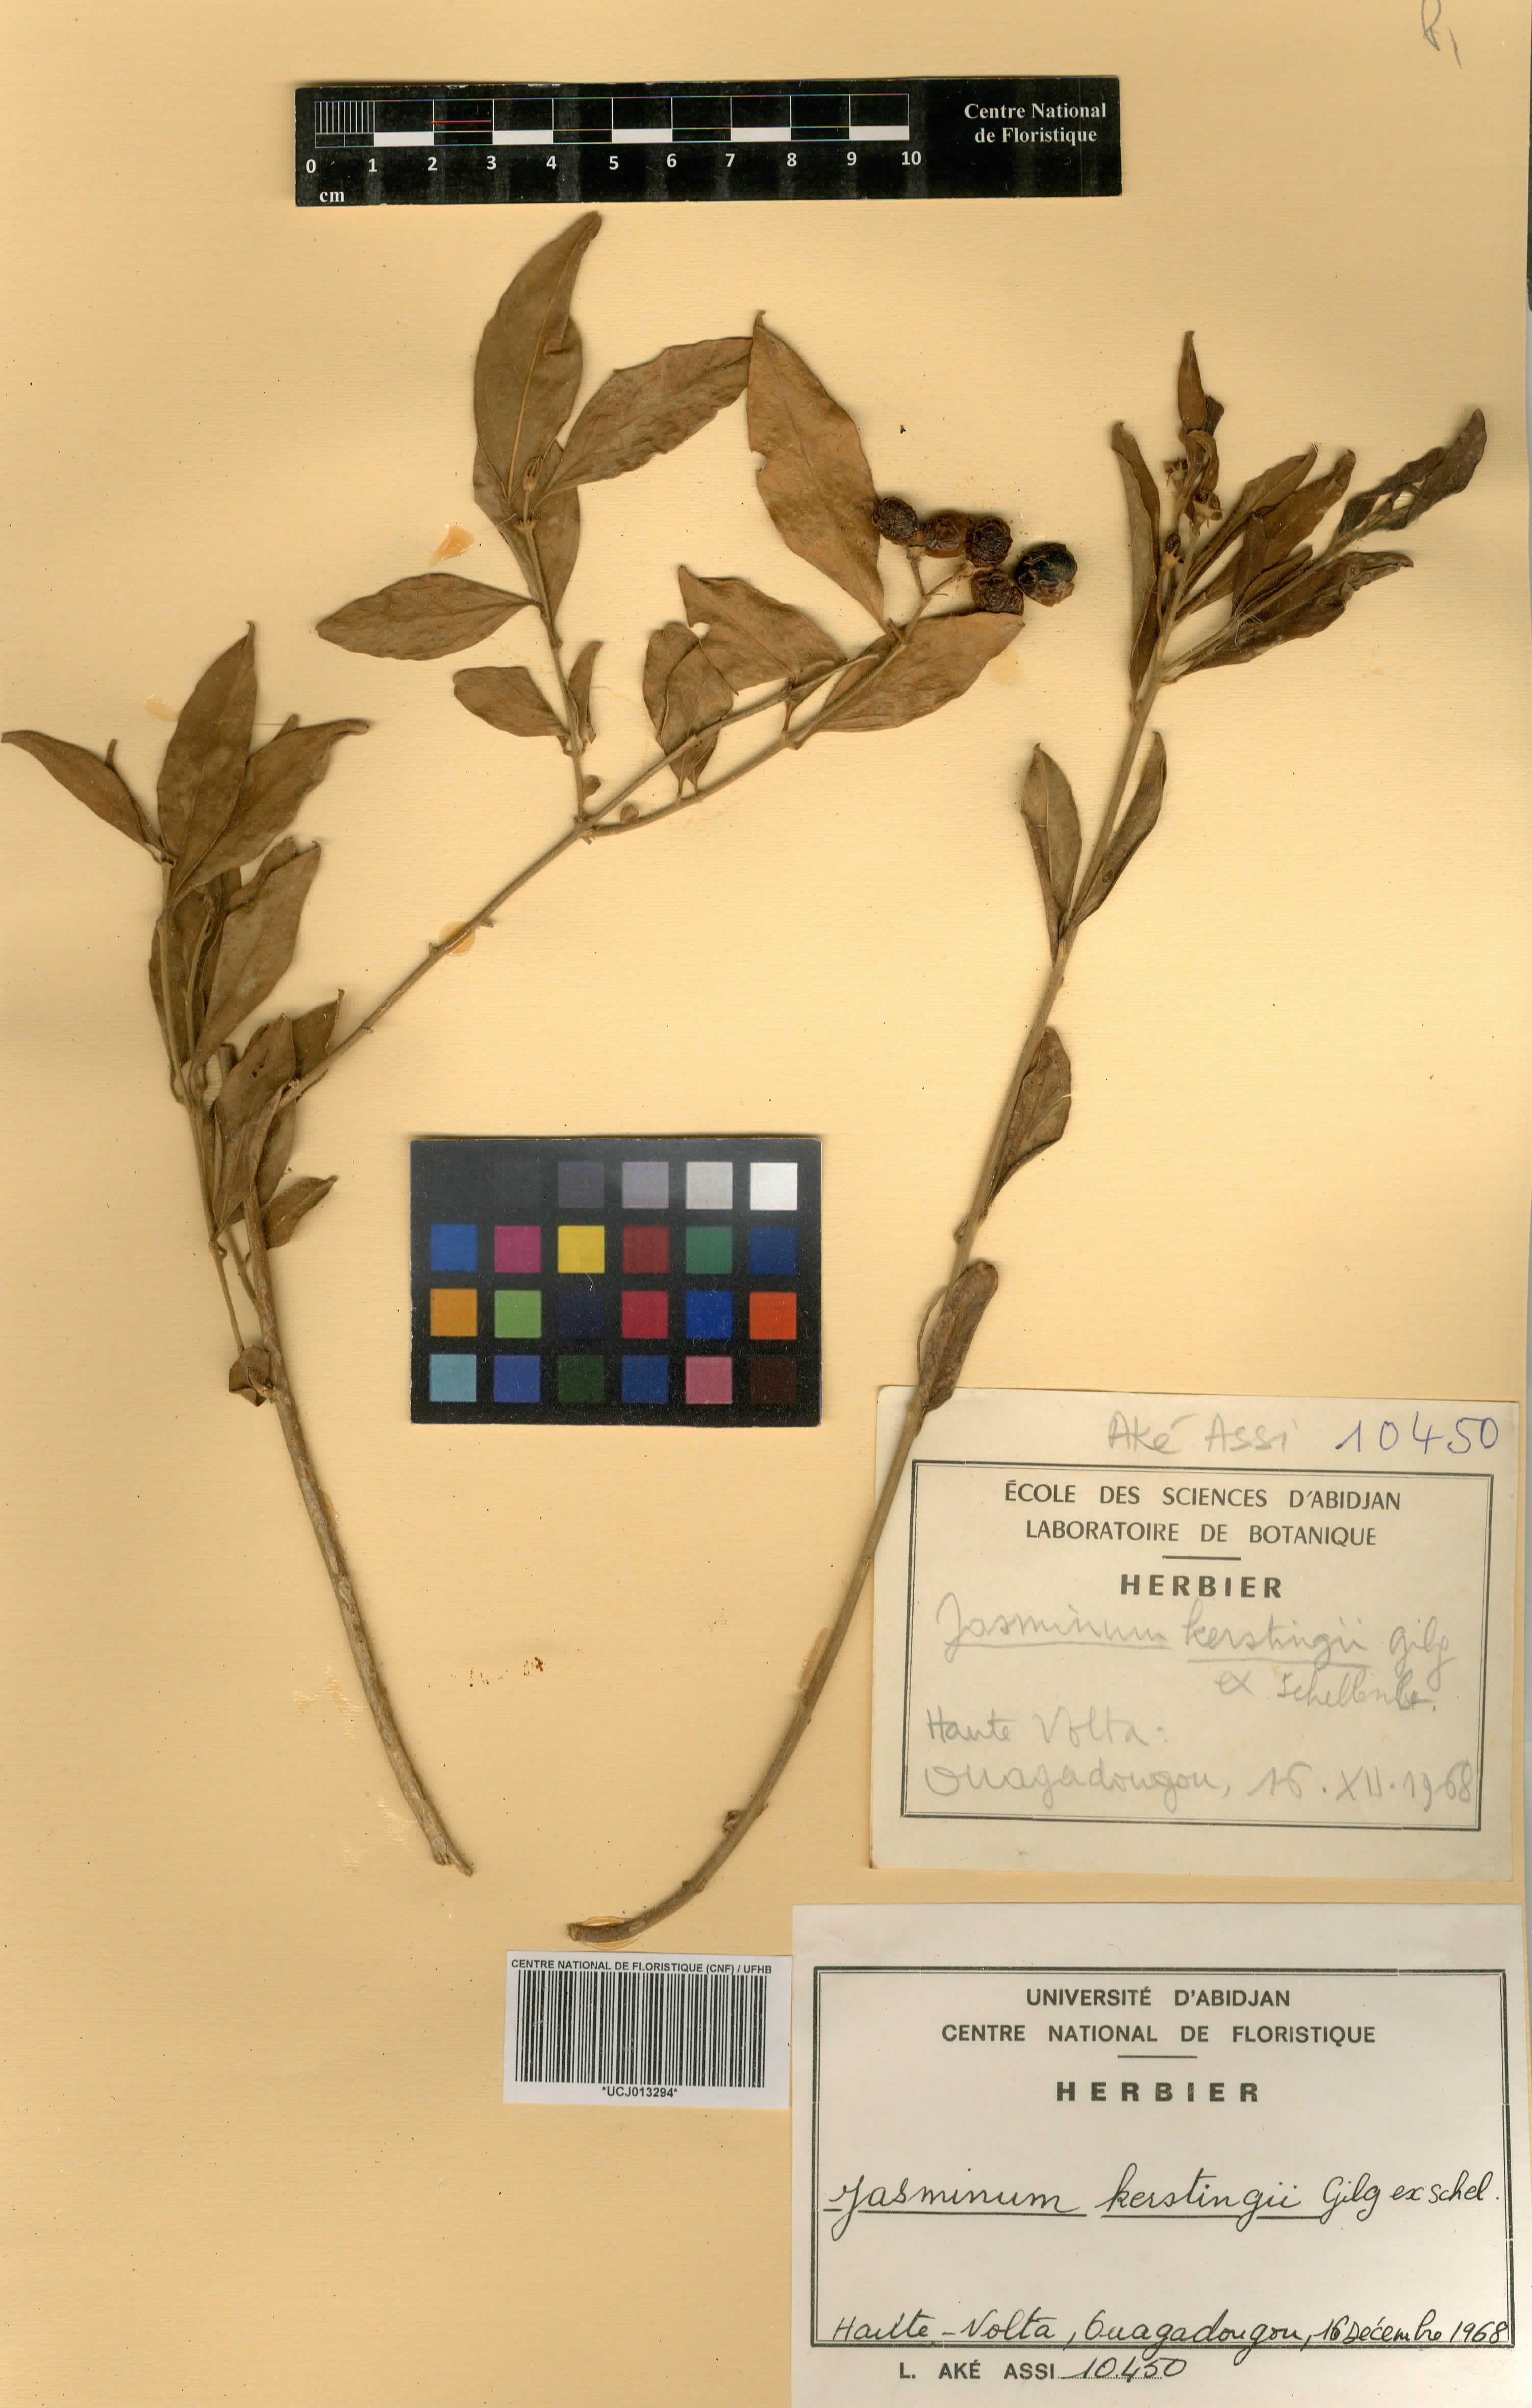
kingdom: Plantae
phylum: Tracheophyta
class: Magnoliopsida
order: Lamiales
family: Oleaceae
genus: Jasminum
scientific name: Jasminum kerstingii
